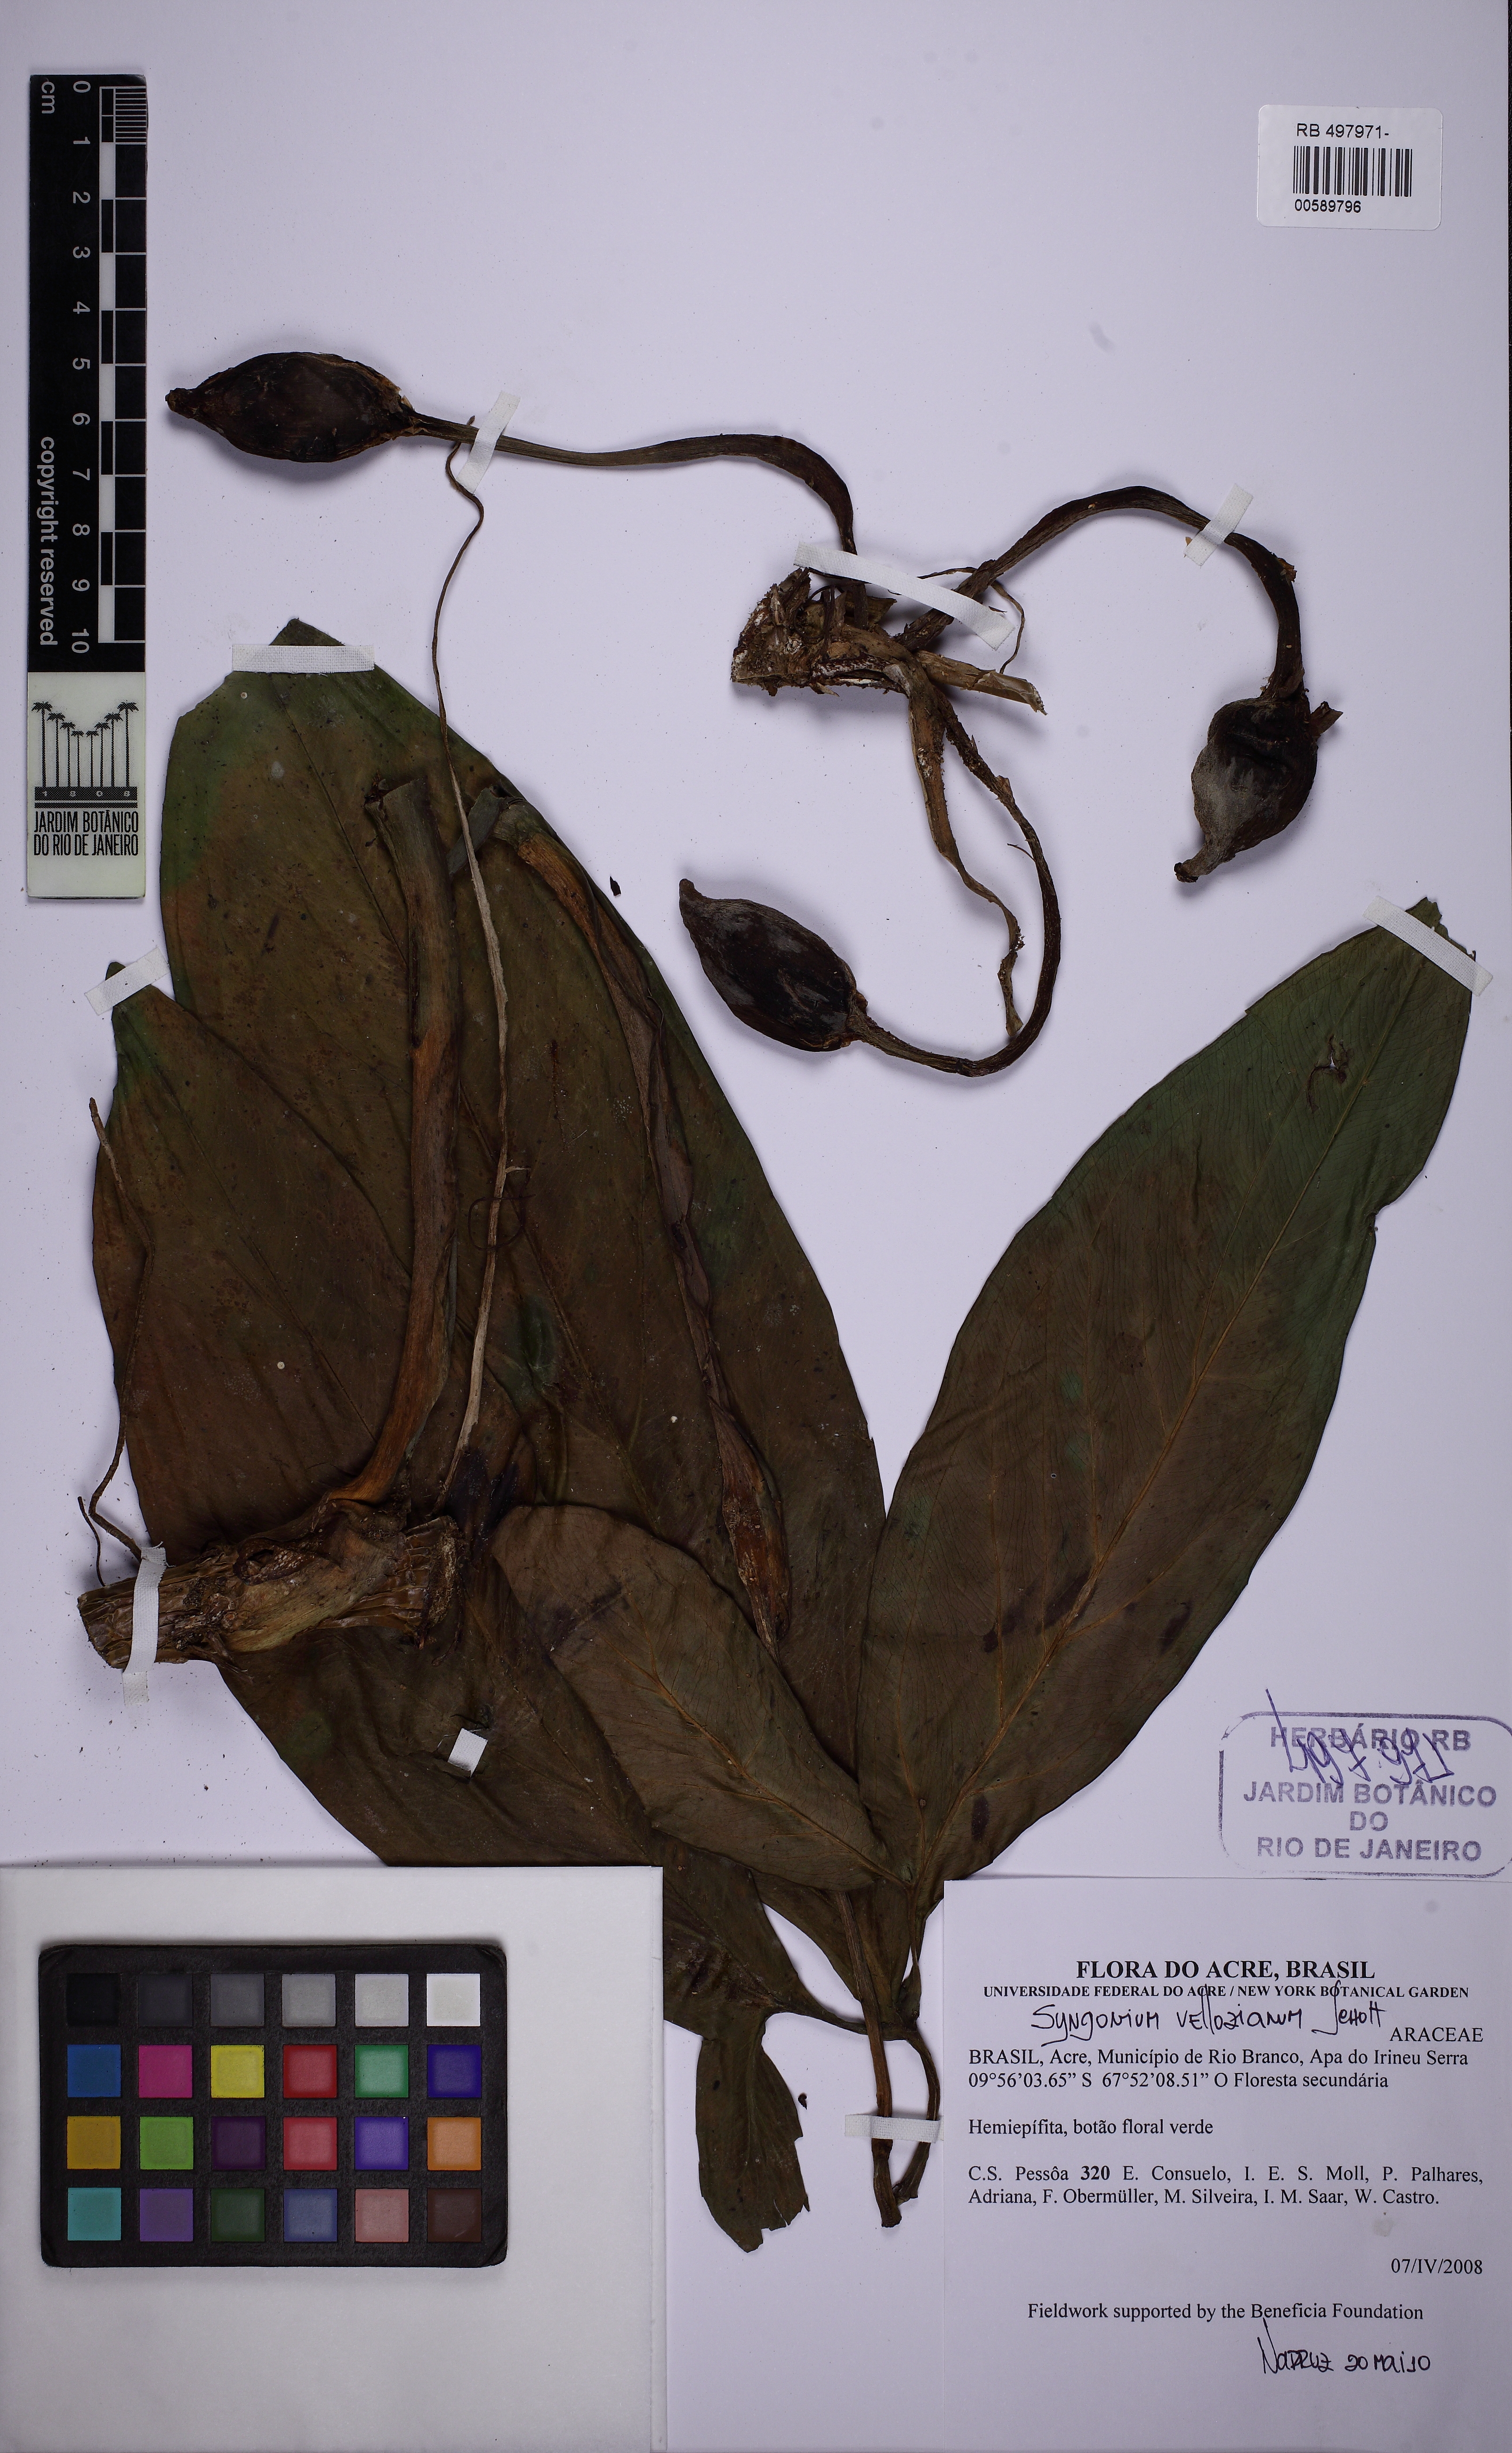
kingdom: Plantae
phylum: Tracheophyta
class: Liliopsida
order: Alismatales
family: Araceae
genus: Syngonium
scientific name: Syngonium podophyllum
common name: American evergreen
